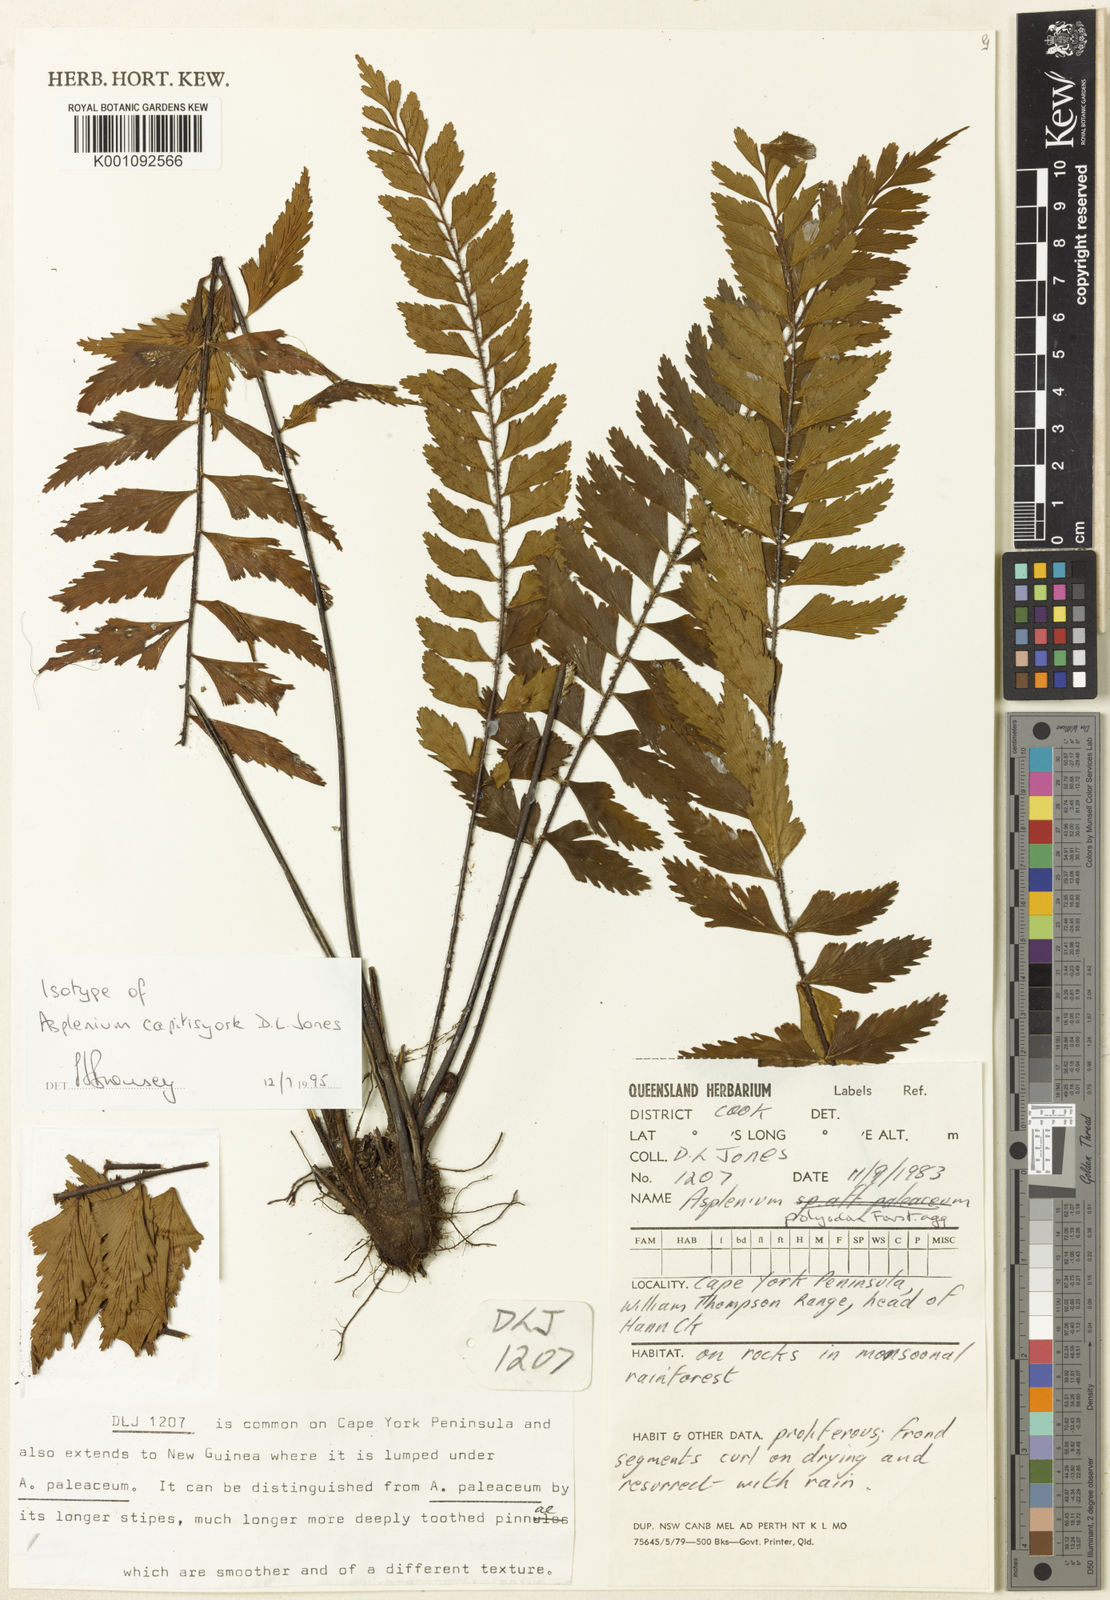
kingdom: Plantae
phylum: Tracheophyta
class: Polypodiopsida
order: Polypodiales
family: Aspleniaceae
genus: Asplenium
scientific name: Asplenium capitisyork
